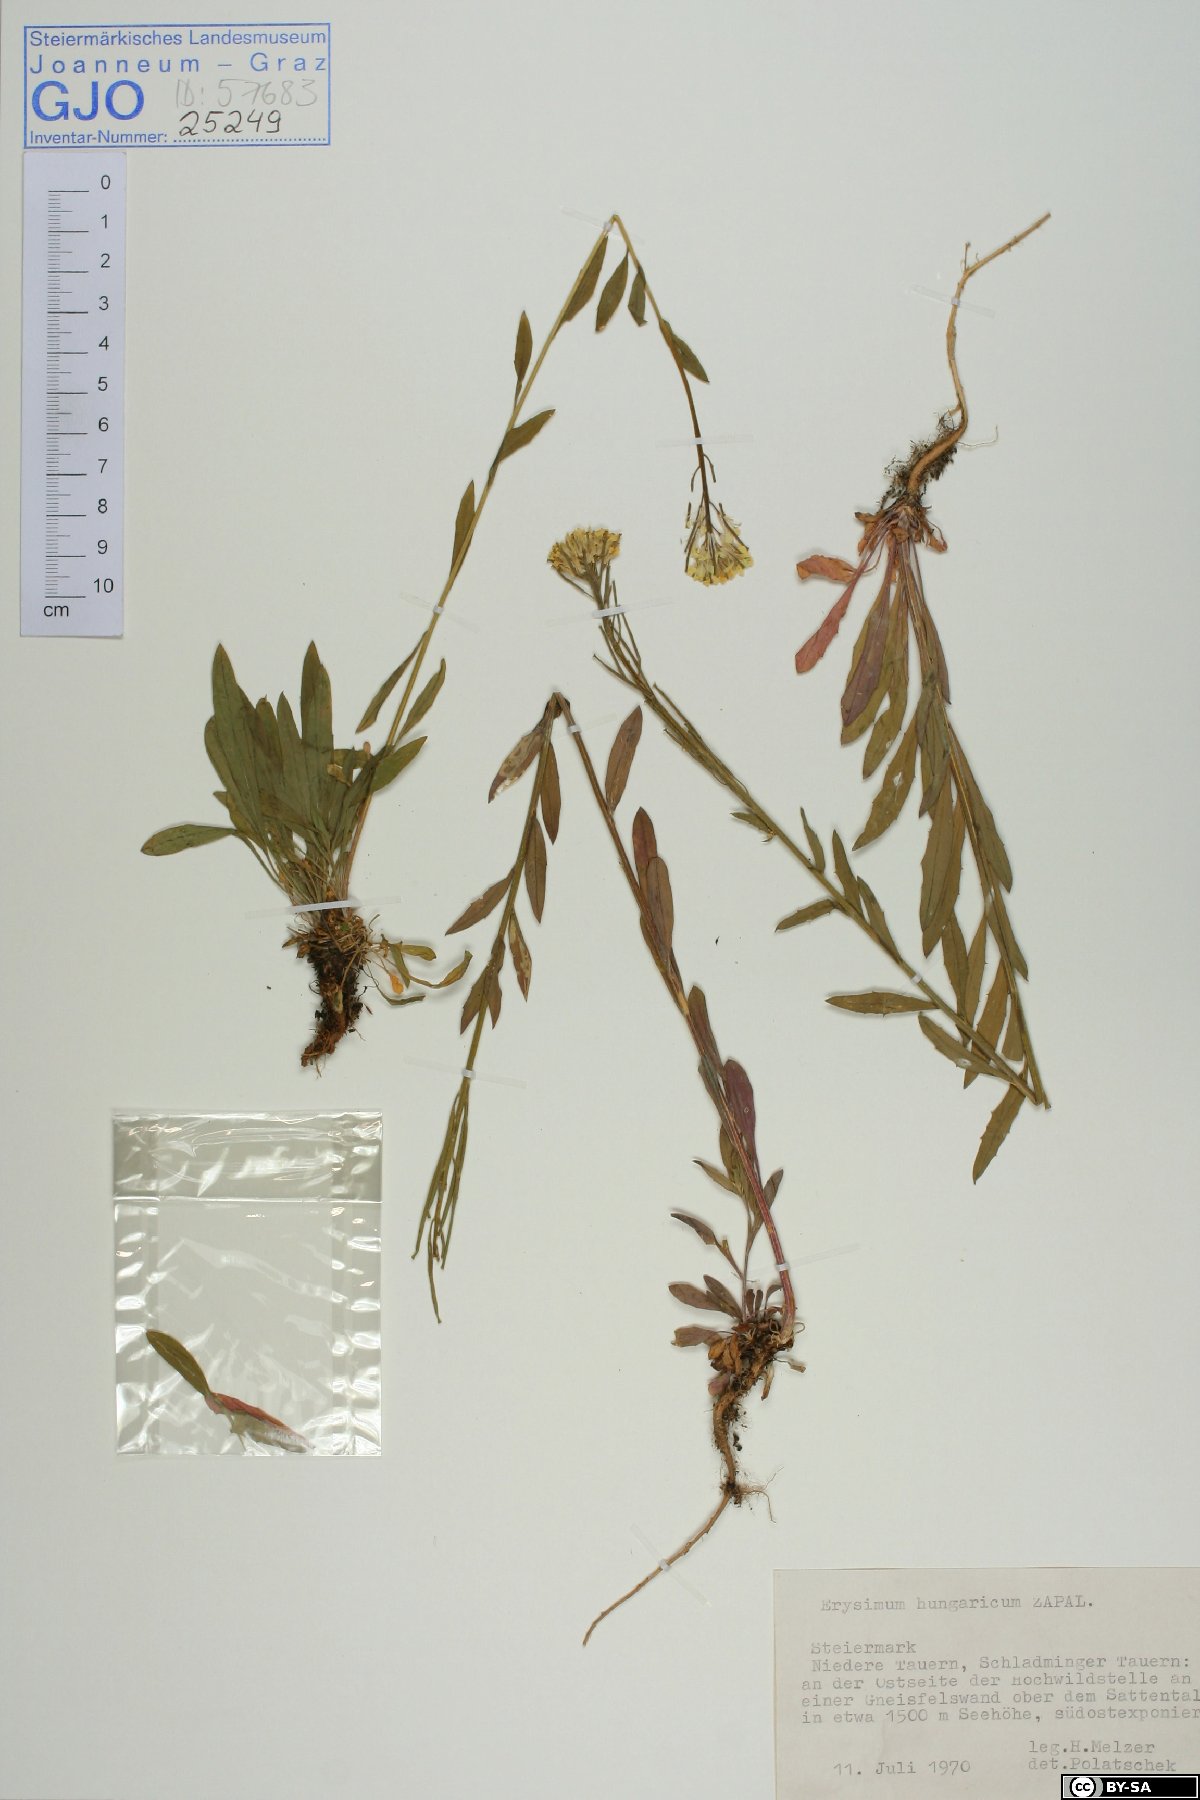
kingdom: Plantae
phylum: Tracheophyta
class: Magnoliopsida
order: Brassicales
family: Brassicaceae
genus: Erysimum
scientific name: Erysimum hungaricum
